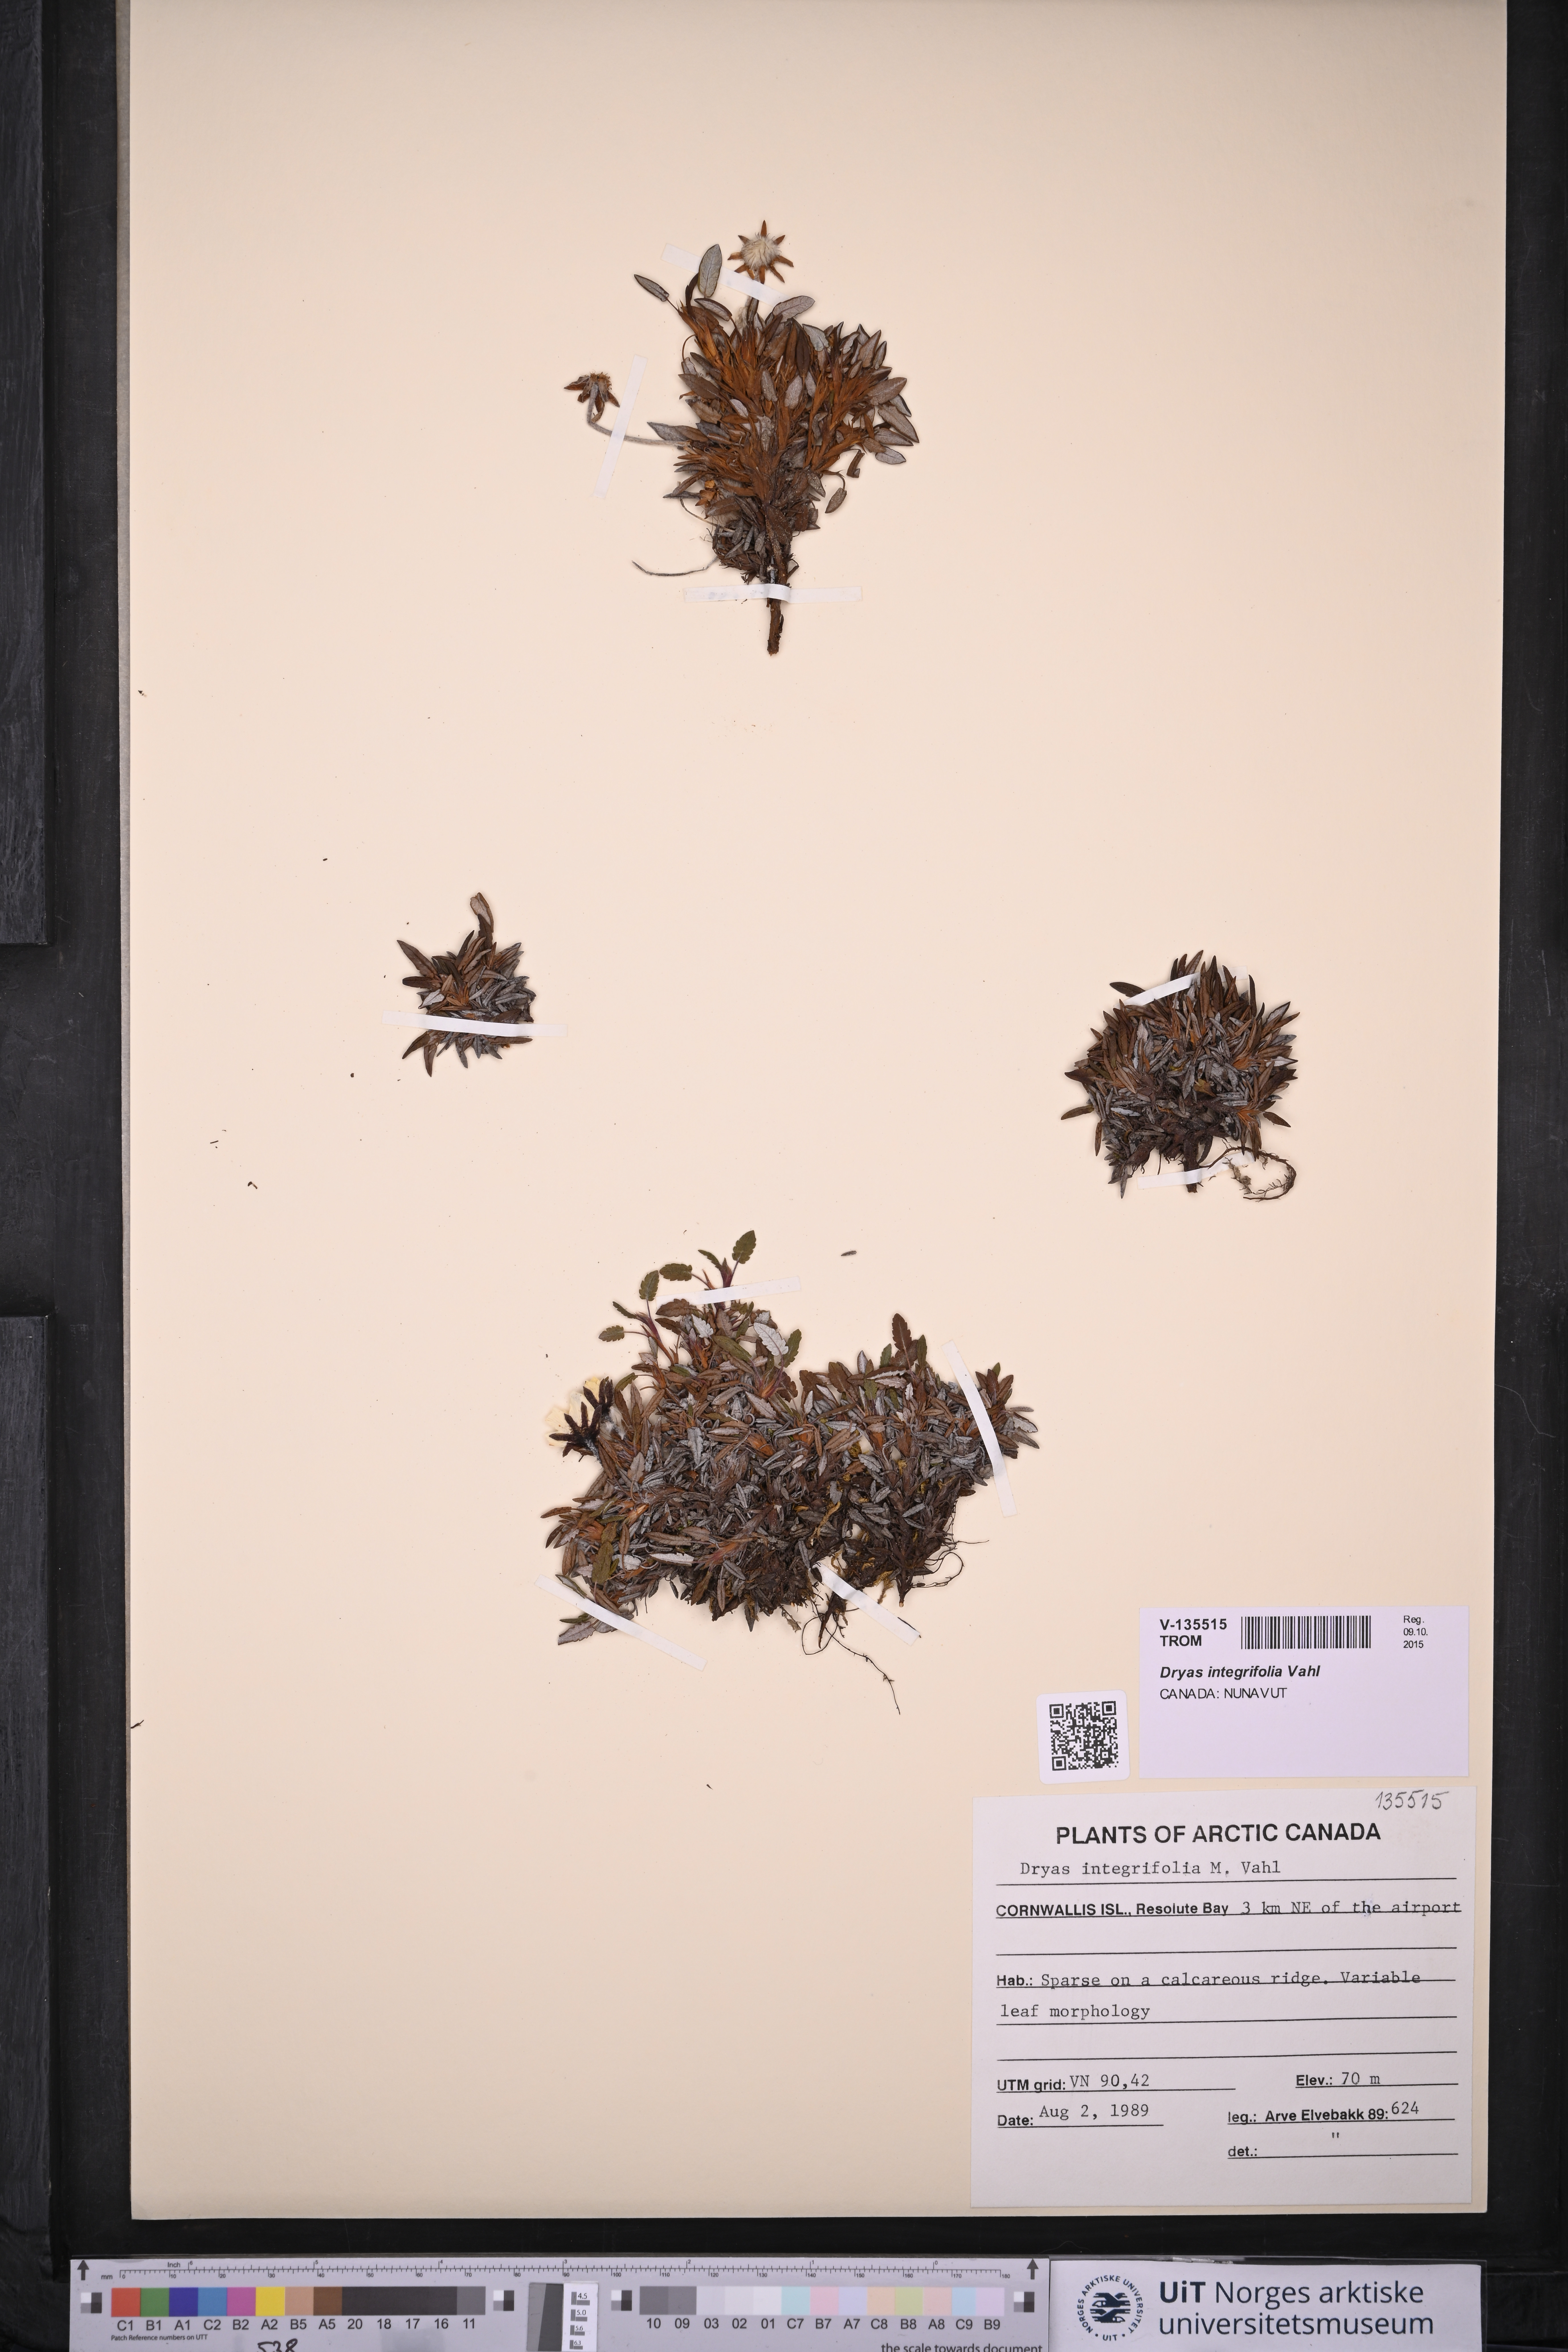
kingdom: Plantae
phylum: Tracheophyta
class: Magnoliopsida
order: Rosales
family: Rosaceae
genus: Dryas
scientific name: Dryas integrifolia
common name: Entire-leaved mountain avens
